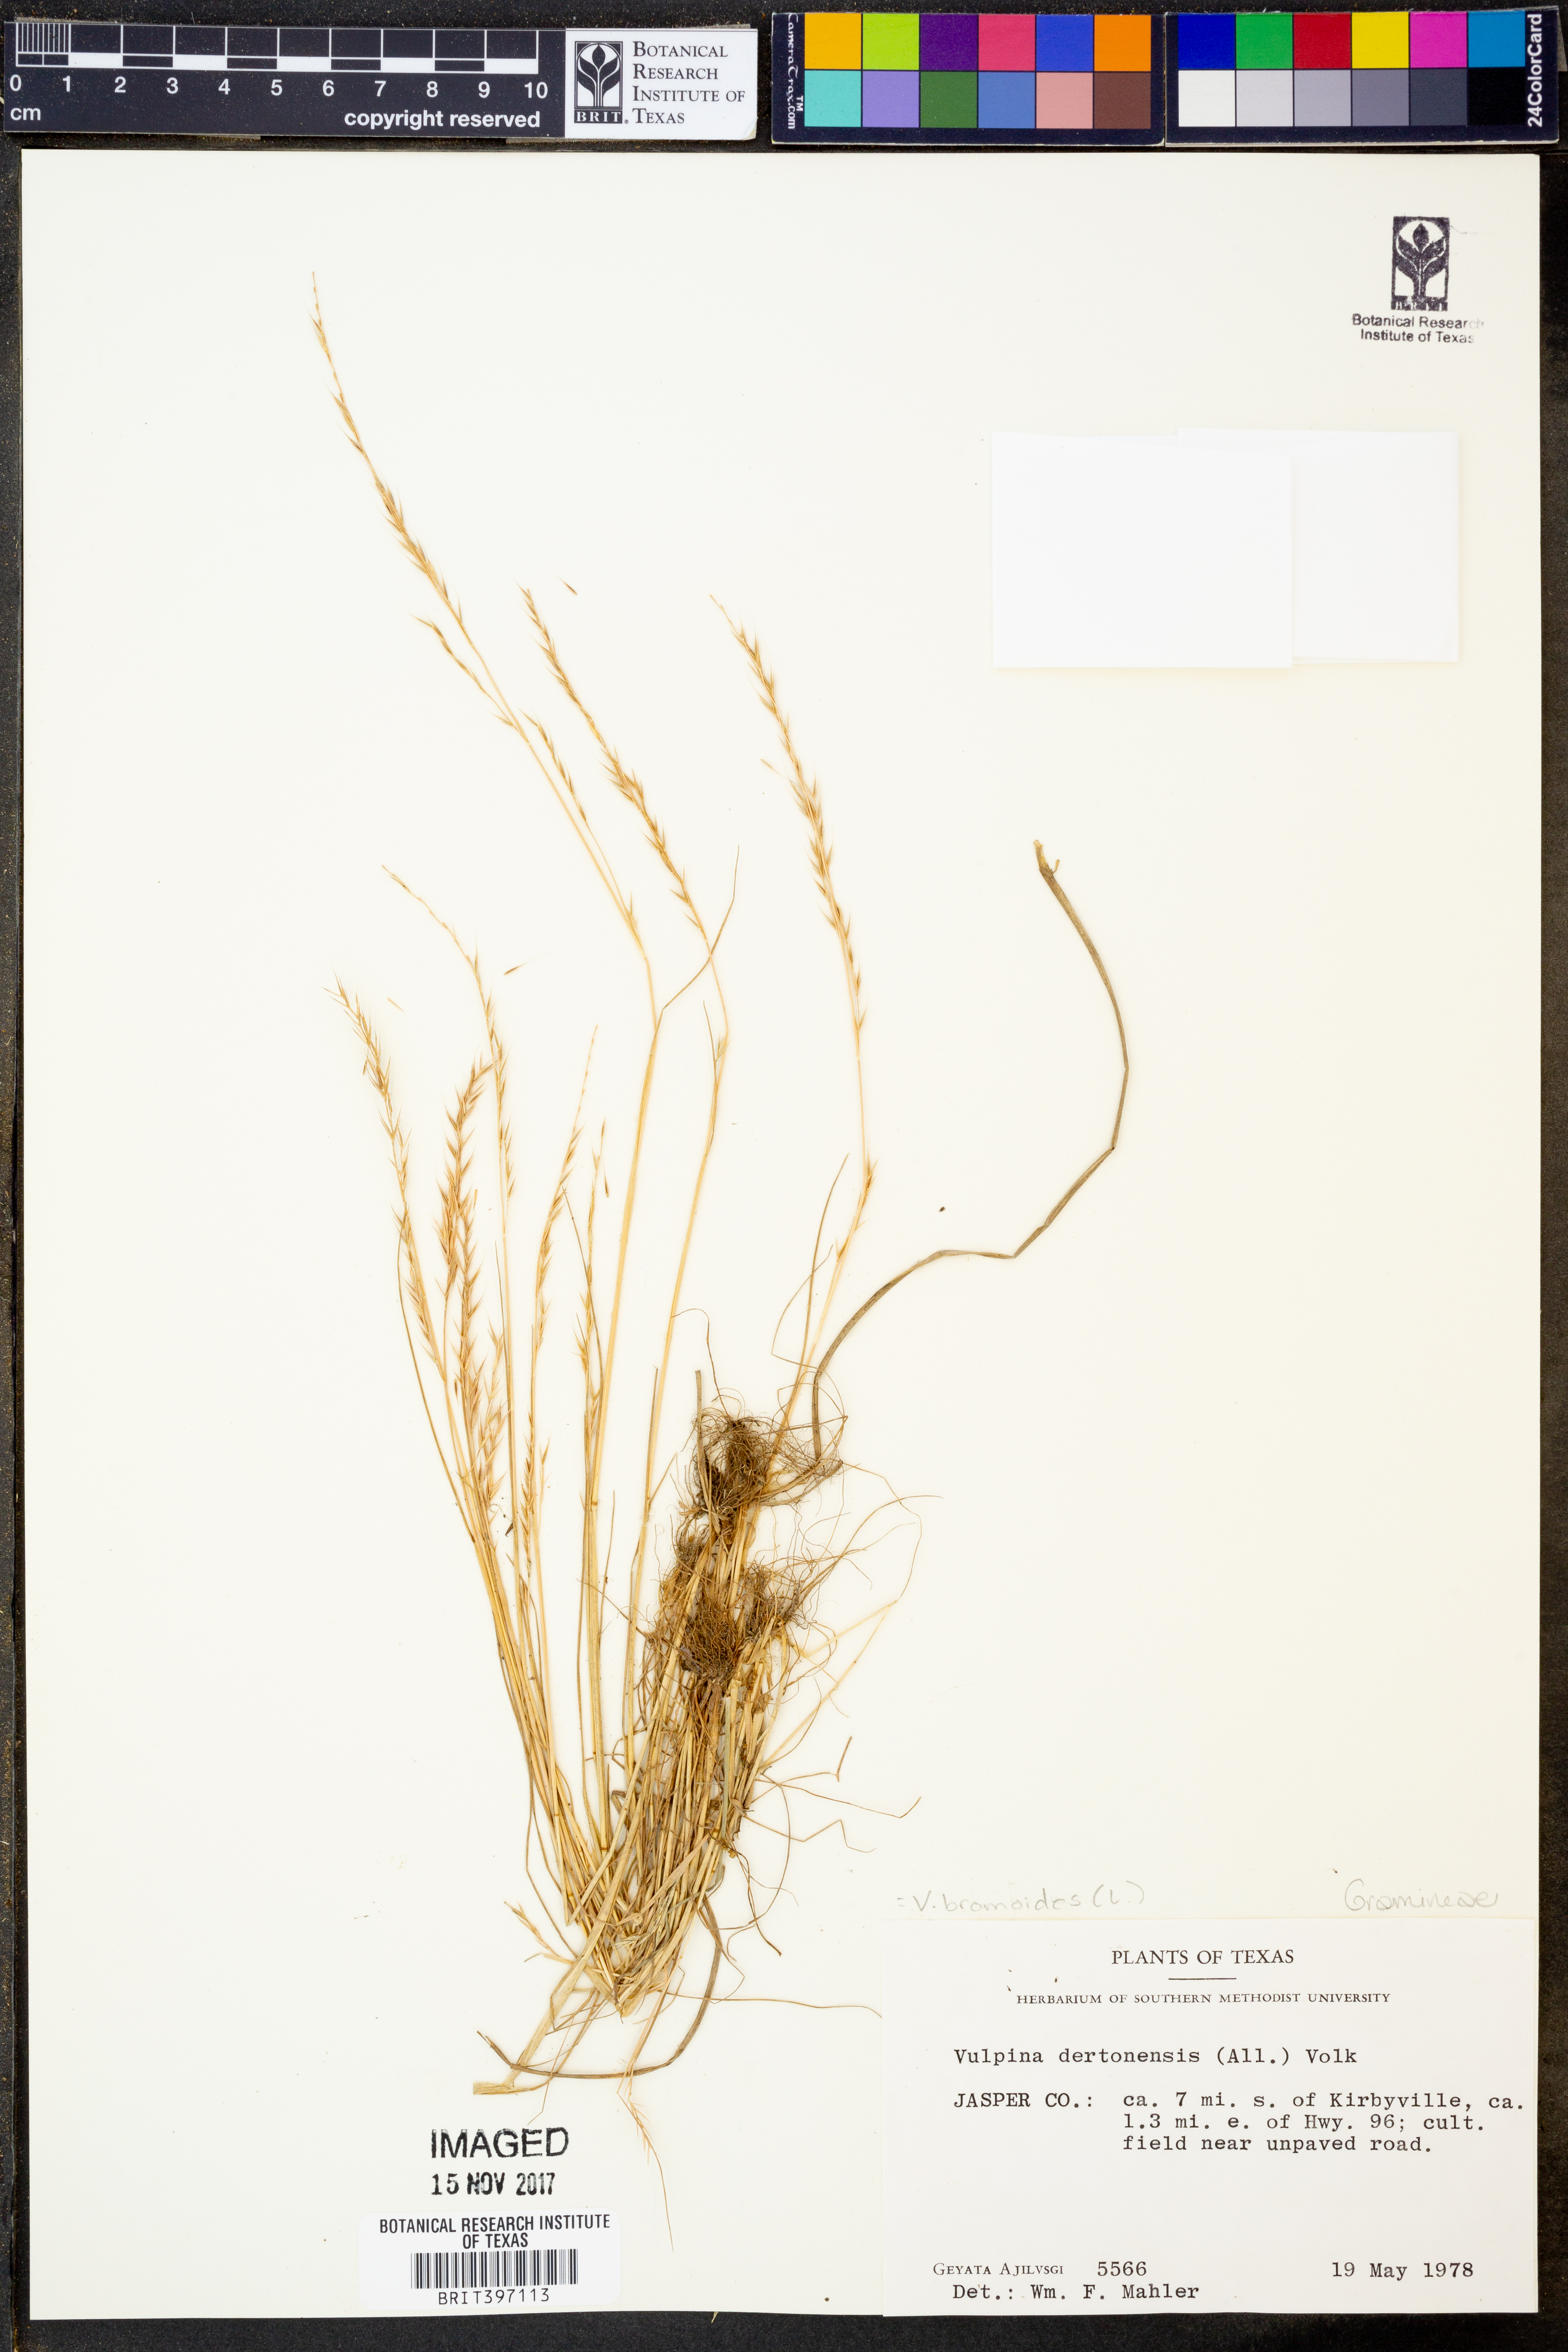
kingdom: Plantae
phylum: Tracheophyta
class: Liliopsida
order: Poales
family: Poaceae
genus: Festuca
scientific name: Festuca bromoides
